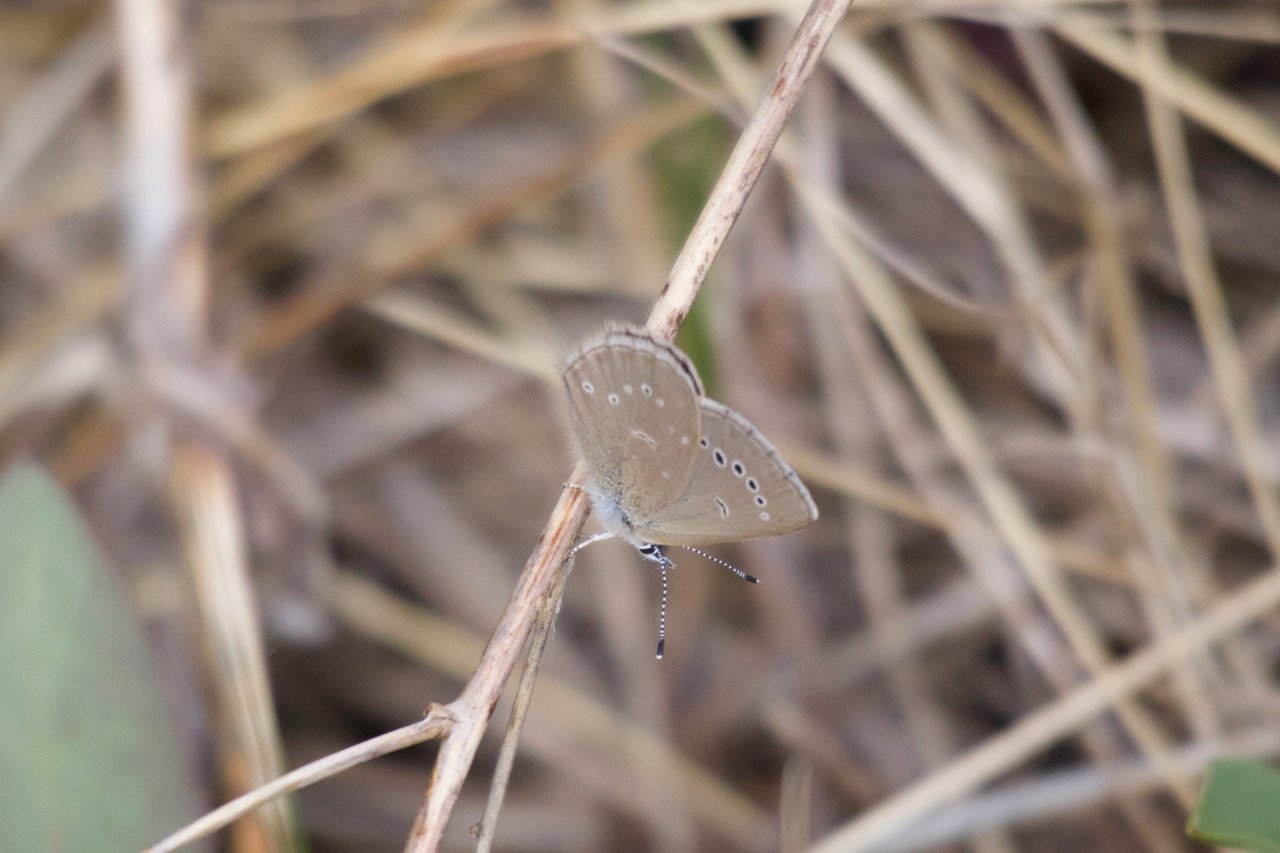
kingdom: Animalia
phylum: Arthropoda
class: Insecta
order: Lepidoptera
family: Lycaenidae
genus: Glaucopsyche
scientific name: Glaucopsyche lygdamus
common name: Silvery Blue
